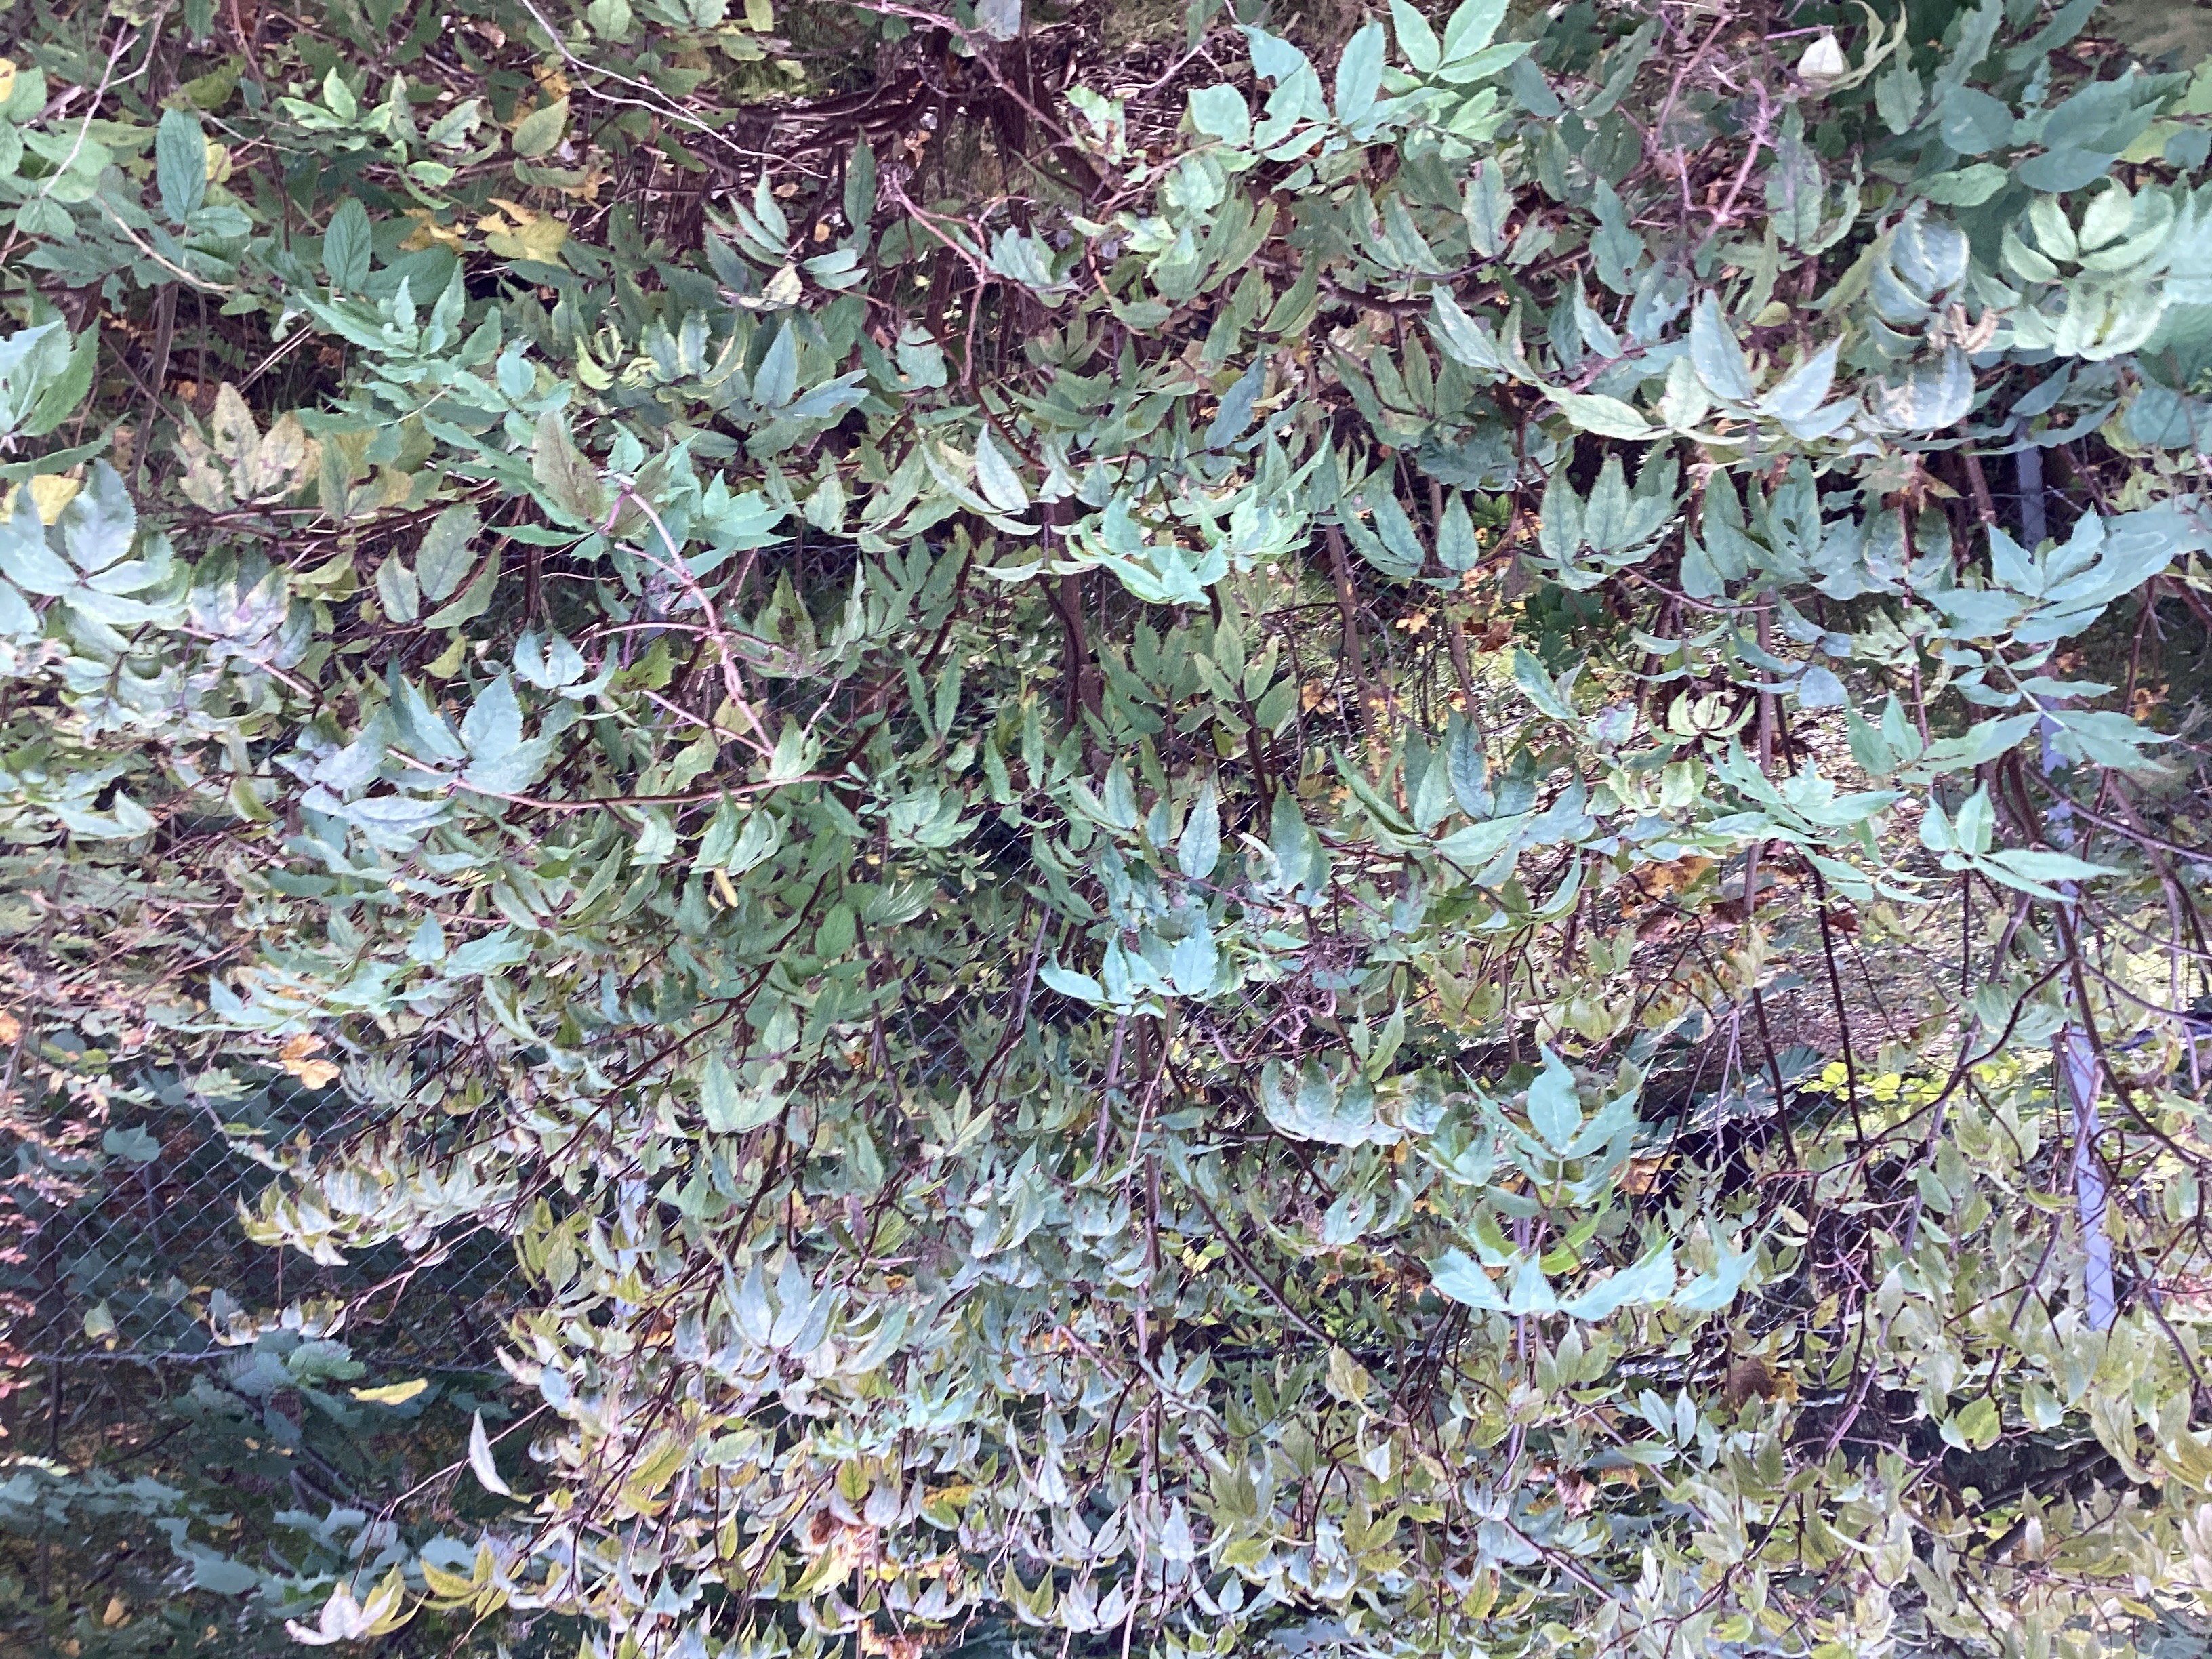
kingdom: Plantae
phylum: Tracheophyta
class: Magnoliopsida
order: Dipsacales
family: Viburnaceae
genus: Sambucus
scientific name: Sambucus racemosa
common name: rødhyll
